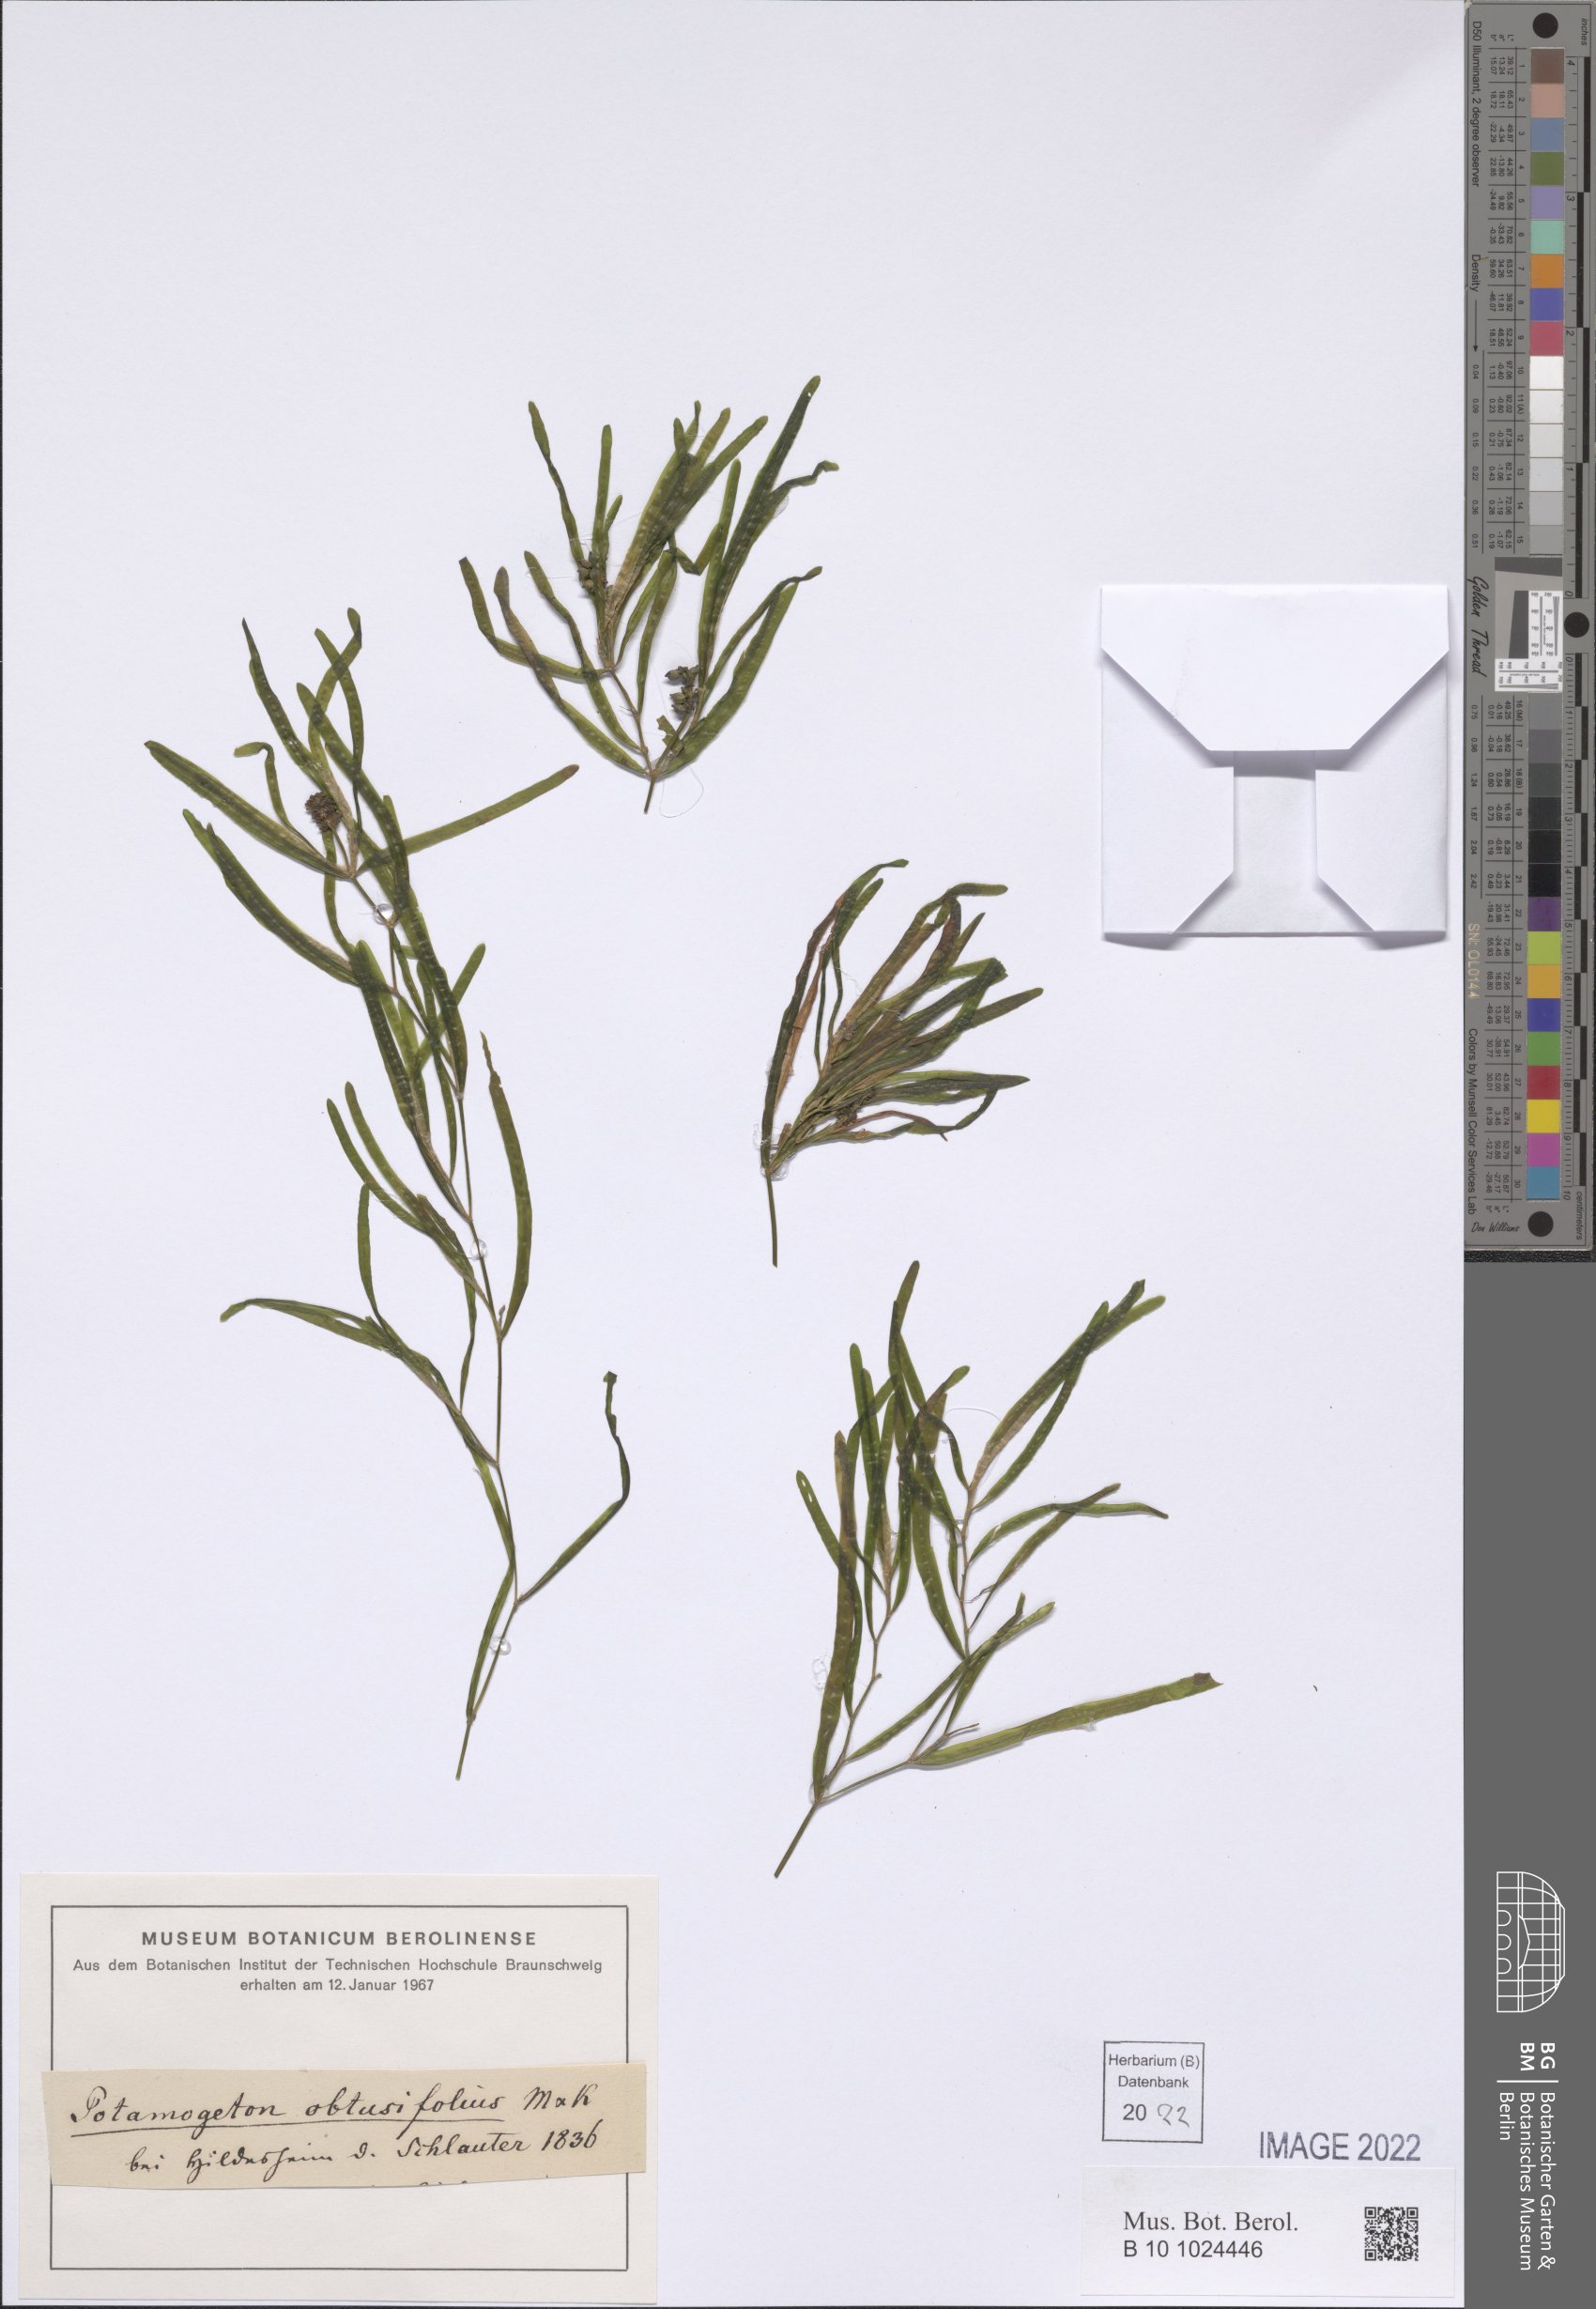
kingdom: Plantae
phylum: Tracheophyta
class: Liliopsida
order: Alismatales
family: Potamogetonaceae
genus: Potamogeton
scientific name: Potamogeton obtusifolius
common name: Blunt-leaved pondweed
